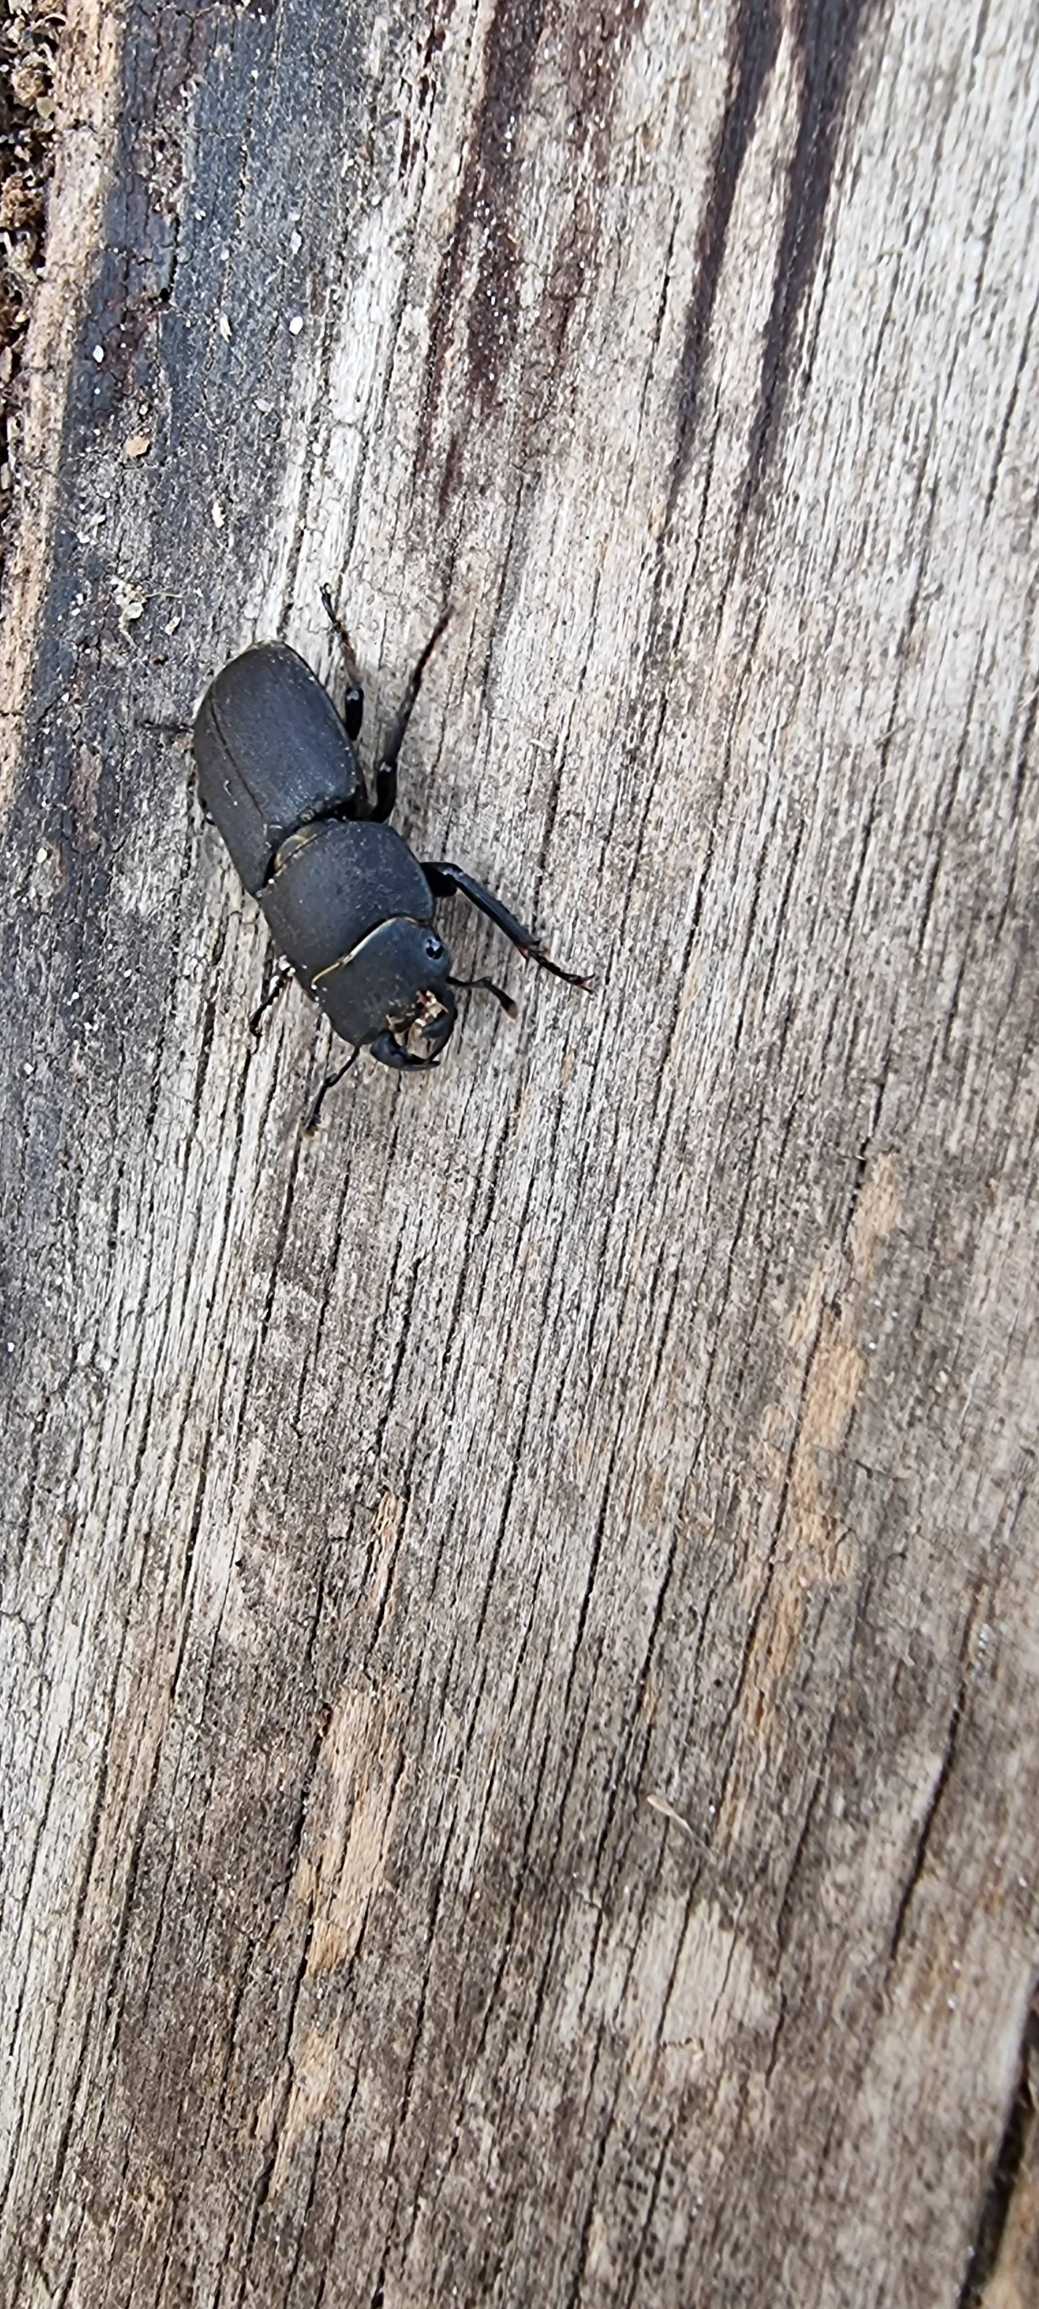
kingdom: Animalia
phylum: Arthropoda
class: Insecta
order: Coleoptera
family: Lucanidae
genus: Dorcus
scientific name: Dorcus parallelipipedus
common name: Bøghjort
